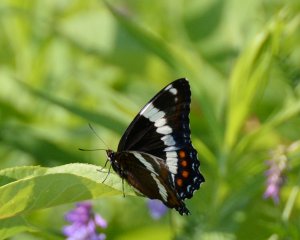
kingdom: Animalia
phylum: Arthropoda
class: Insecta
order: Lepidoptera
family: Nymphalidae
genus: Limenitis
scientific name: Limenitis arthemis
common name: Red-spotted Admiral
